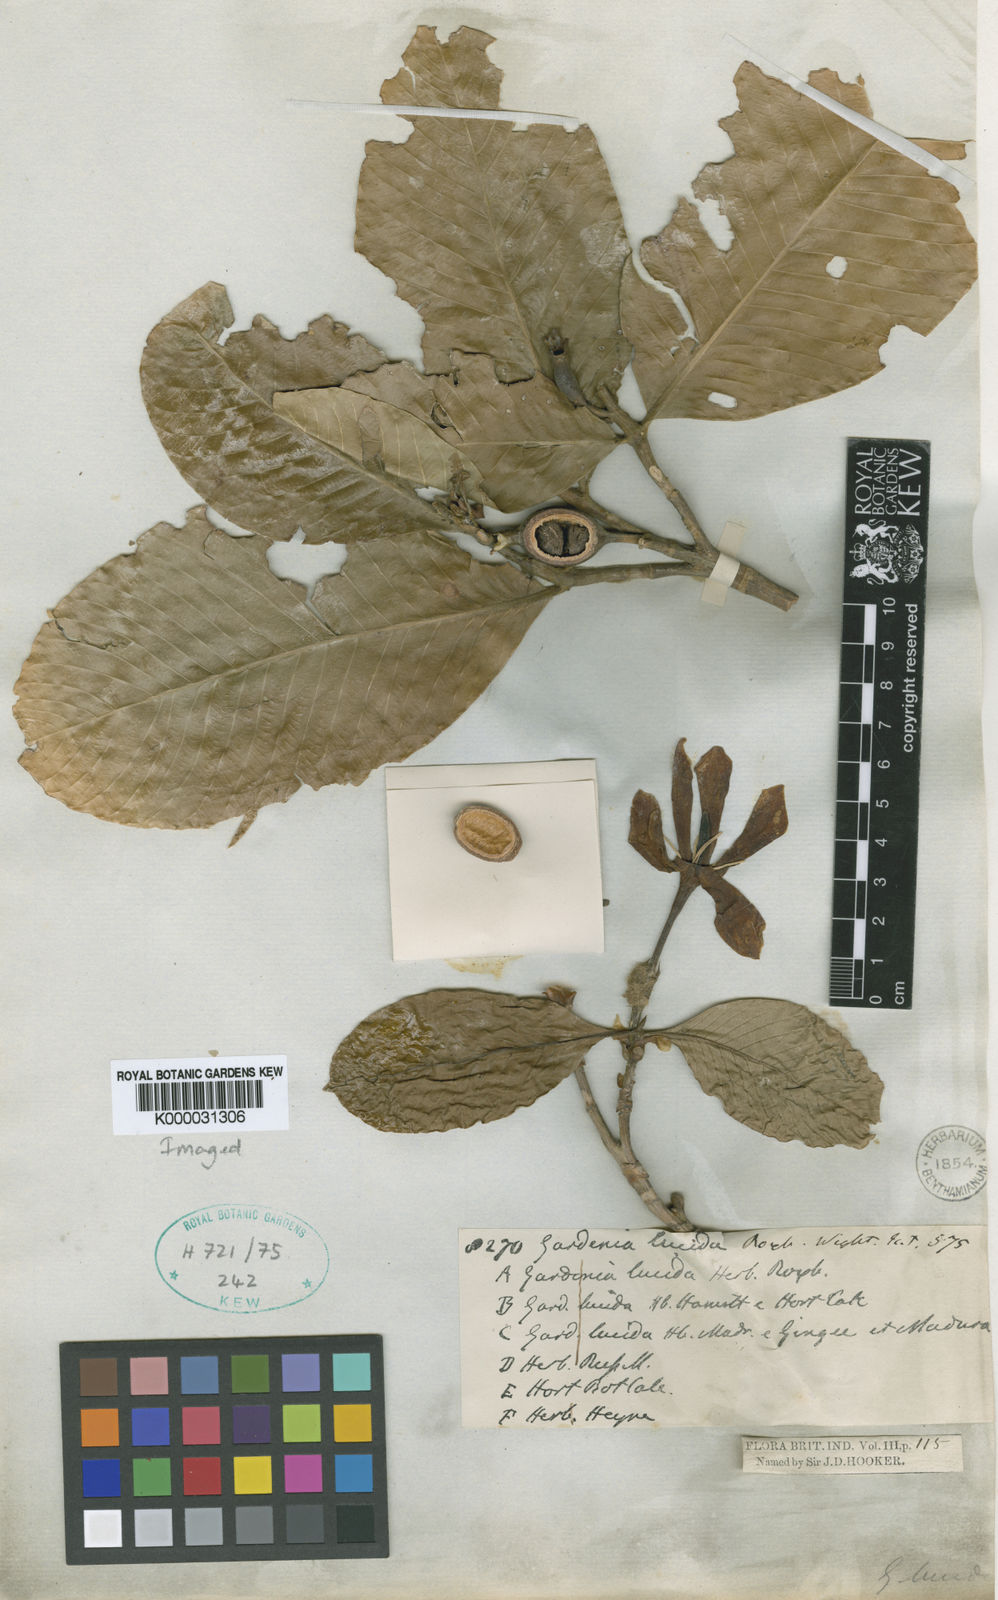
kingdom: Plantae
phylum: Tracheophyta
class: Magnoliopsida
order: Gentianales
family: Rubiaceae
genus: Gardenia
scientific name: Gardenia resinifera
